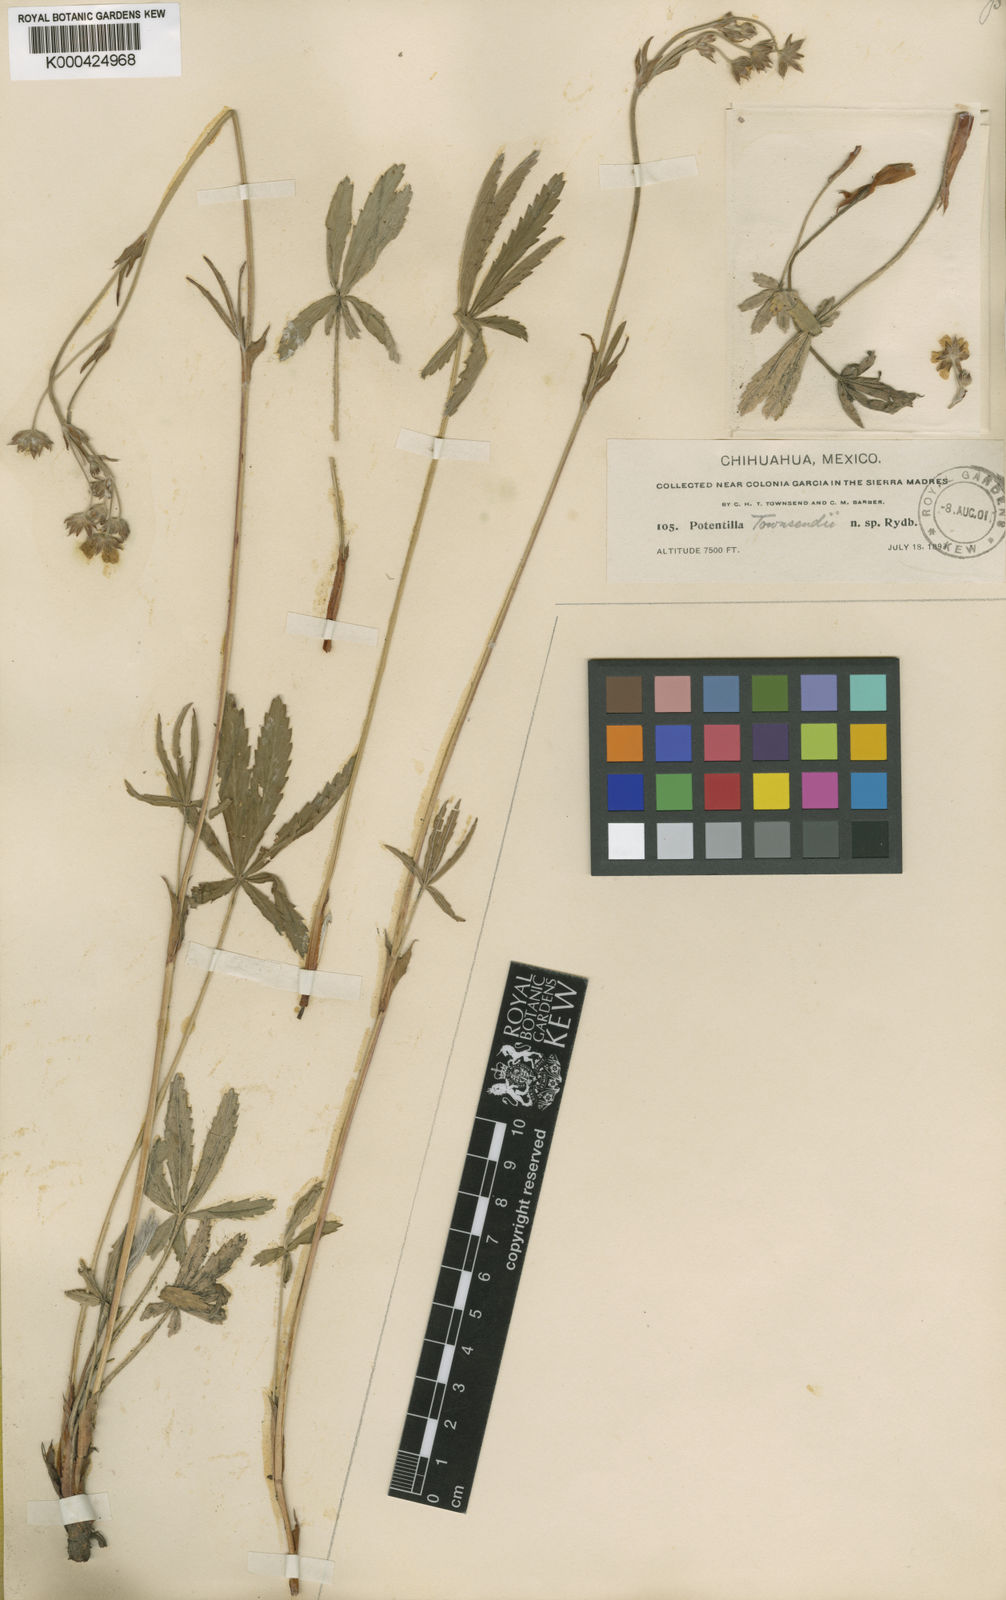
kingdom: Plantae
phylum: Tracheophyta
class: Magnoliopsida
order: Rosales
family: Rosaceae
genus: Potentilla
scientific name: Potentilla townsendii
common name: Townsend's cinquefoil
